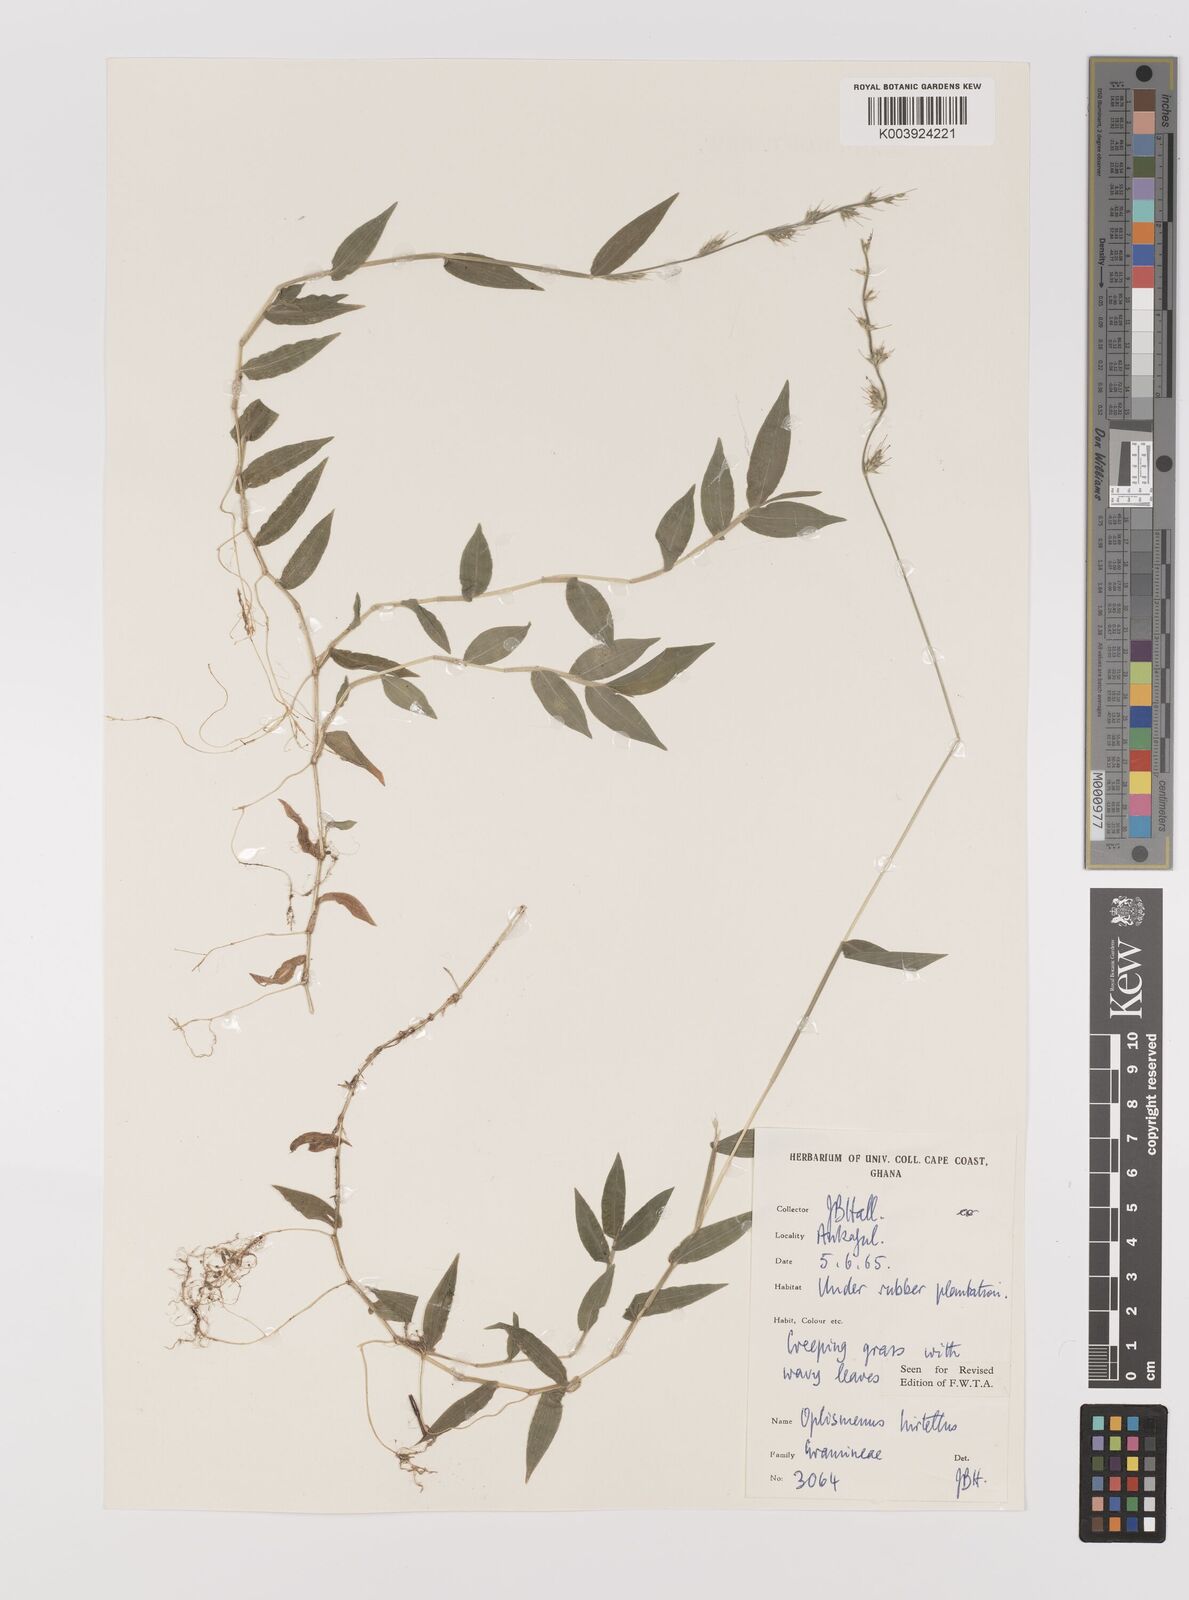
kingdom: Plantae
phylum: Tracheophyta
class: Liliopsida
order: Poales
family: Poaceae
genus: Oplismenus
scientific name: Oplismenus hirtellus
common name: Basketgrass
